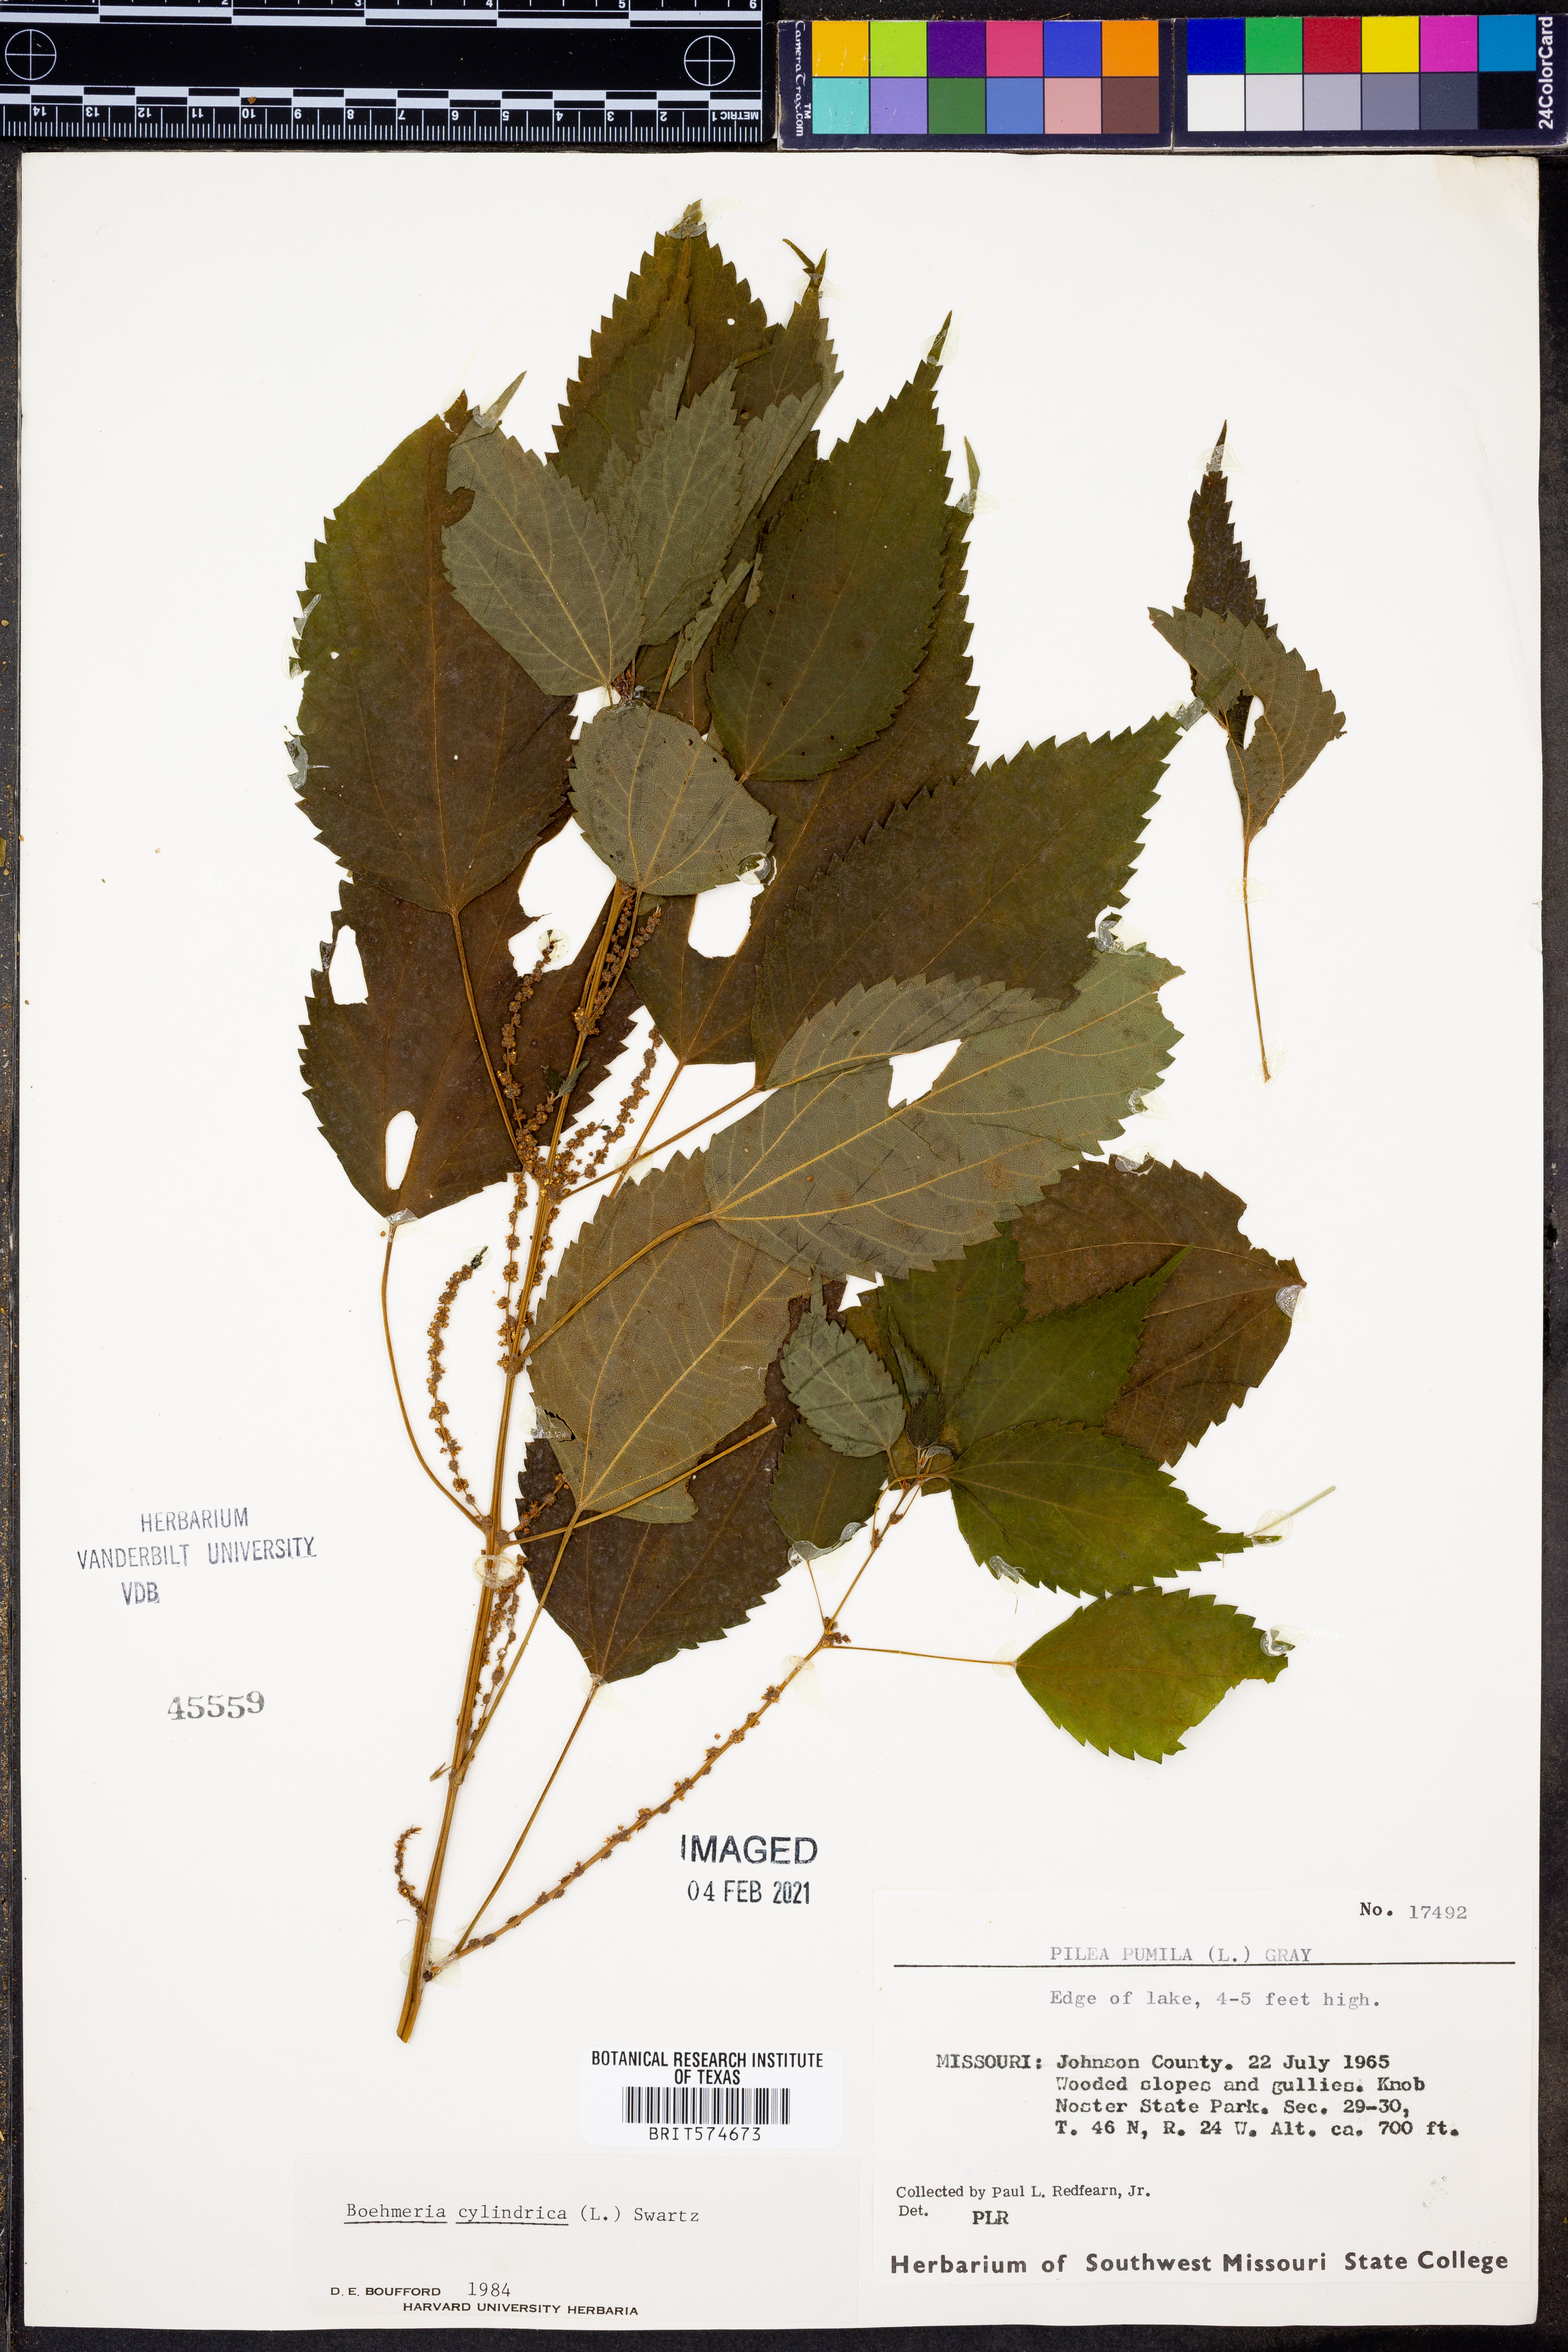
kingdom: Plantae
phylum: Tracheophyta
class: Magnoliopsida
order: Rosales
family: Urticaceae
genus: Boehmeria
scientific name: Boehmeria cylindrica
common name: Bog-hemp
